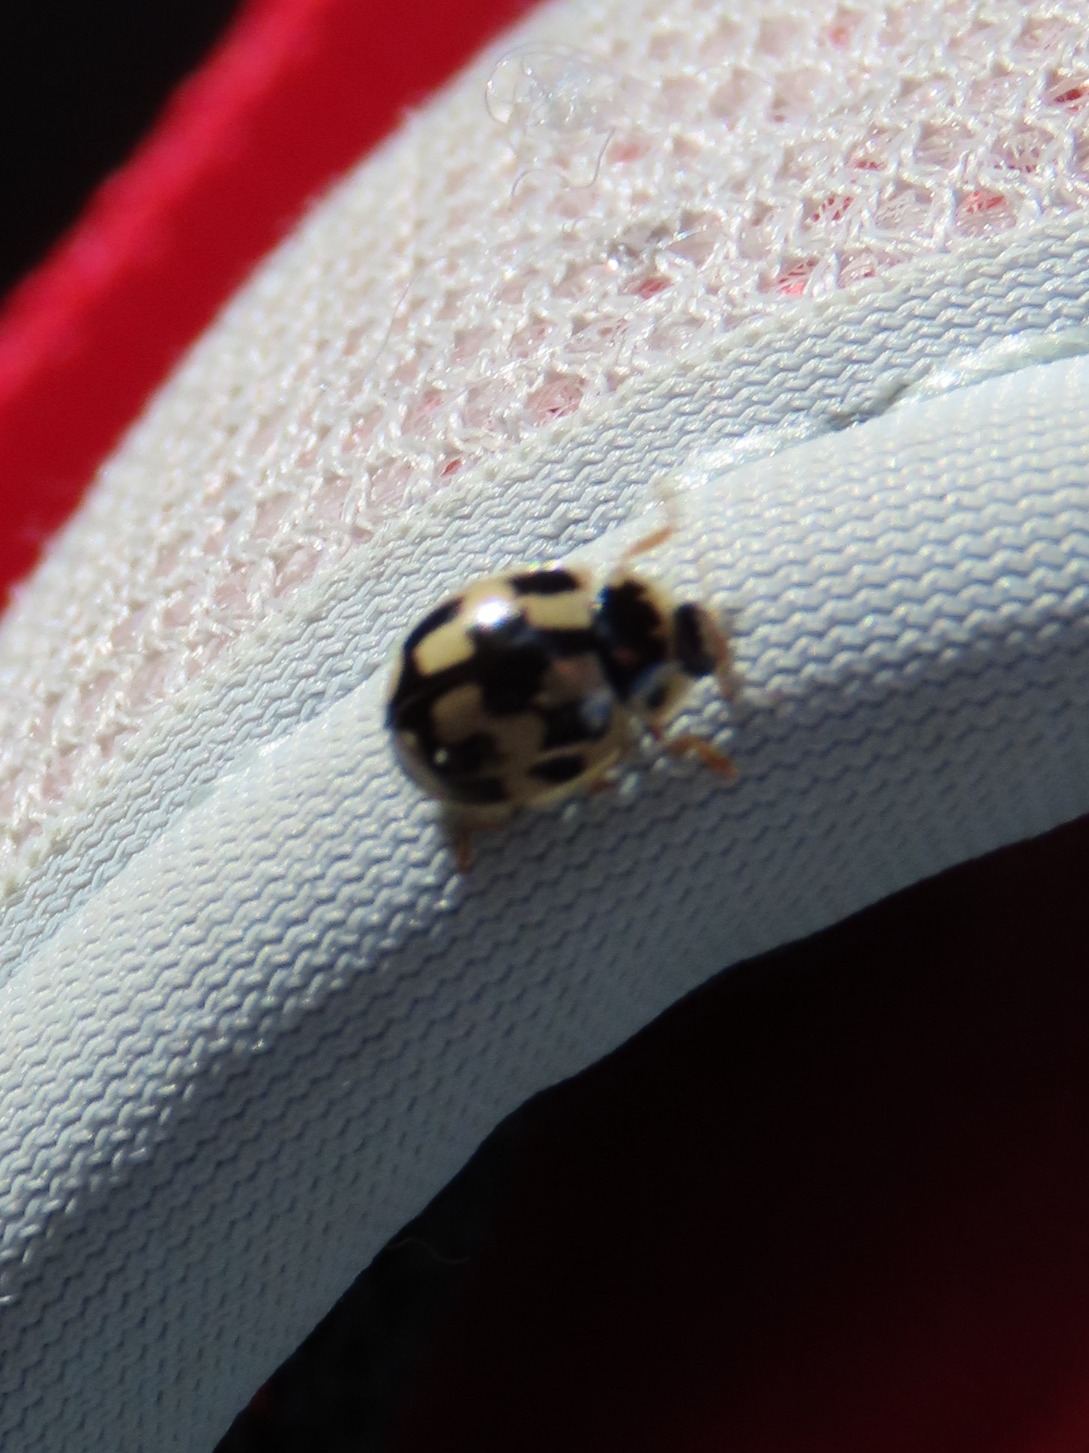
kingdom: Animalia
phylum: Arthropoda
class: Insecta
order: Coleoptera
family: Coccinellidae
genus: Propylaea
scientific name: Propylaea quatuordecimpunctata
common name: Skakbræt
